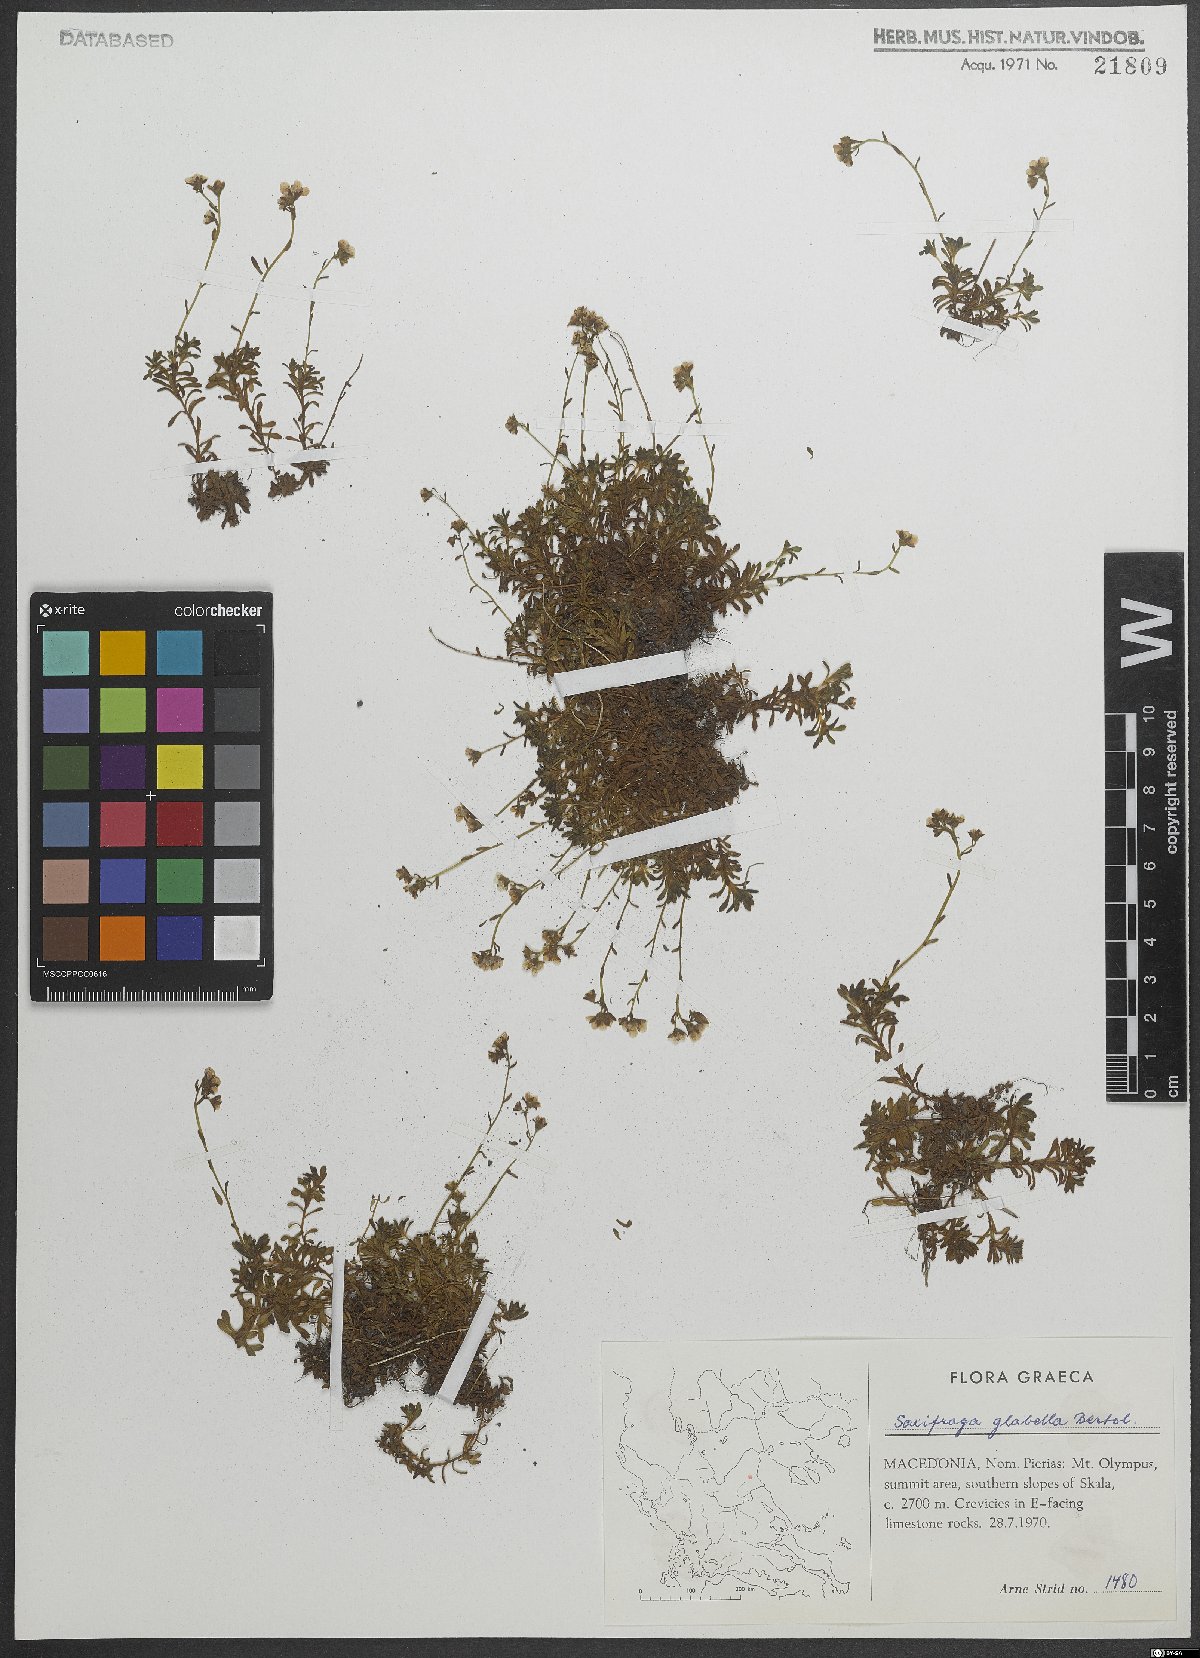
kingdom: Plantae
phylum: Tracheophyta
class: Magnoliopsida
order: Saxifragales
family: Saxifragaceae
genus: Saxifraga
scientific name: Saxifraga glabella
